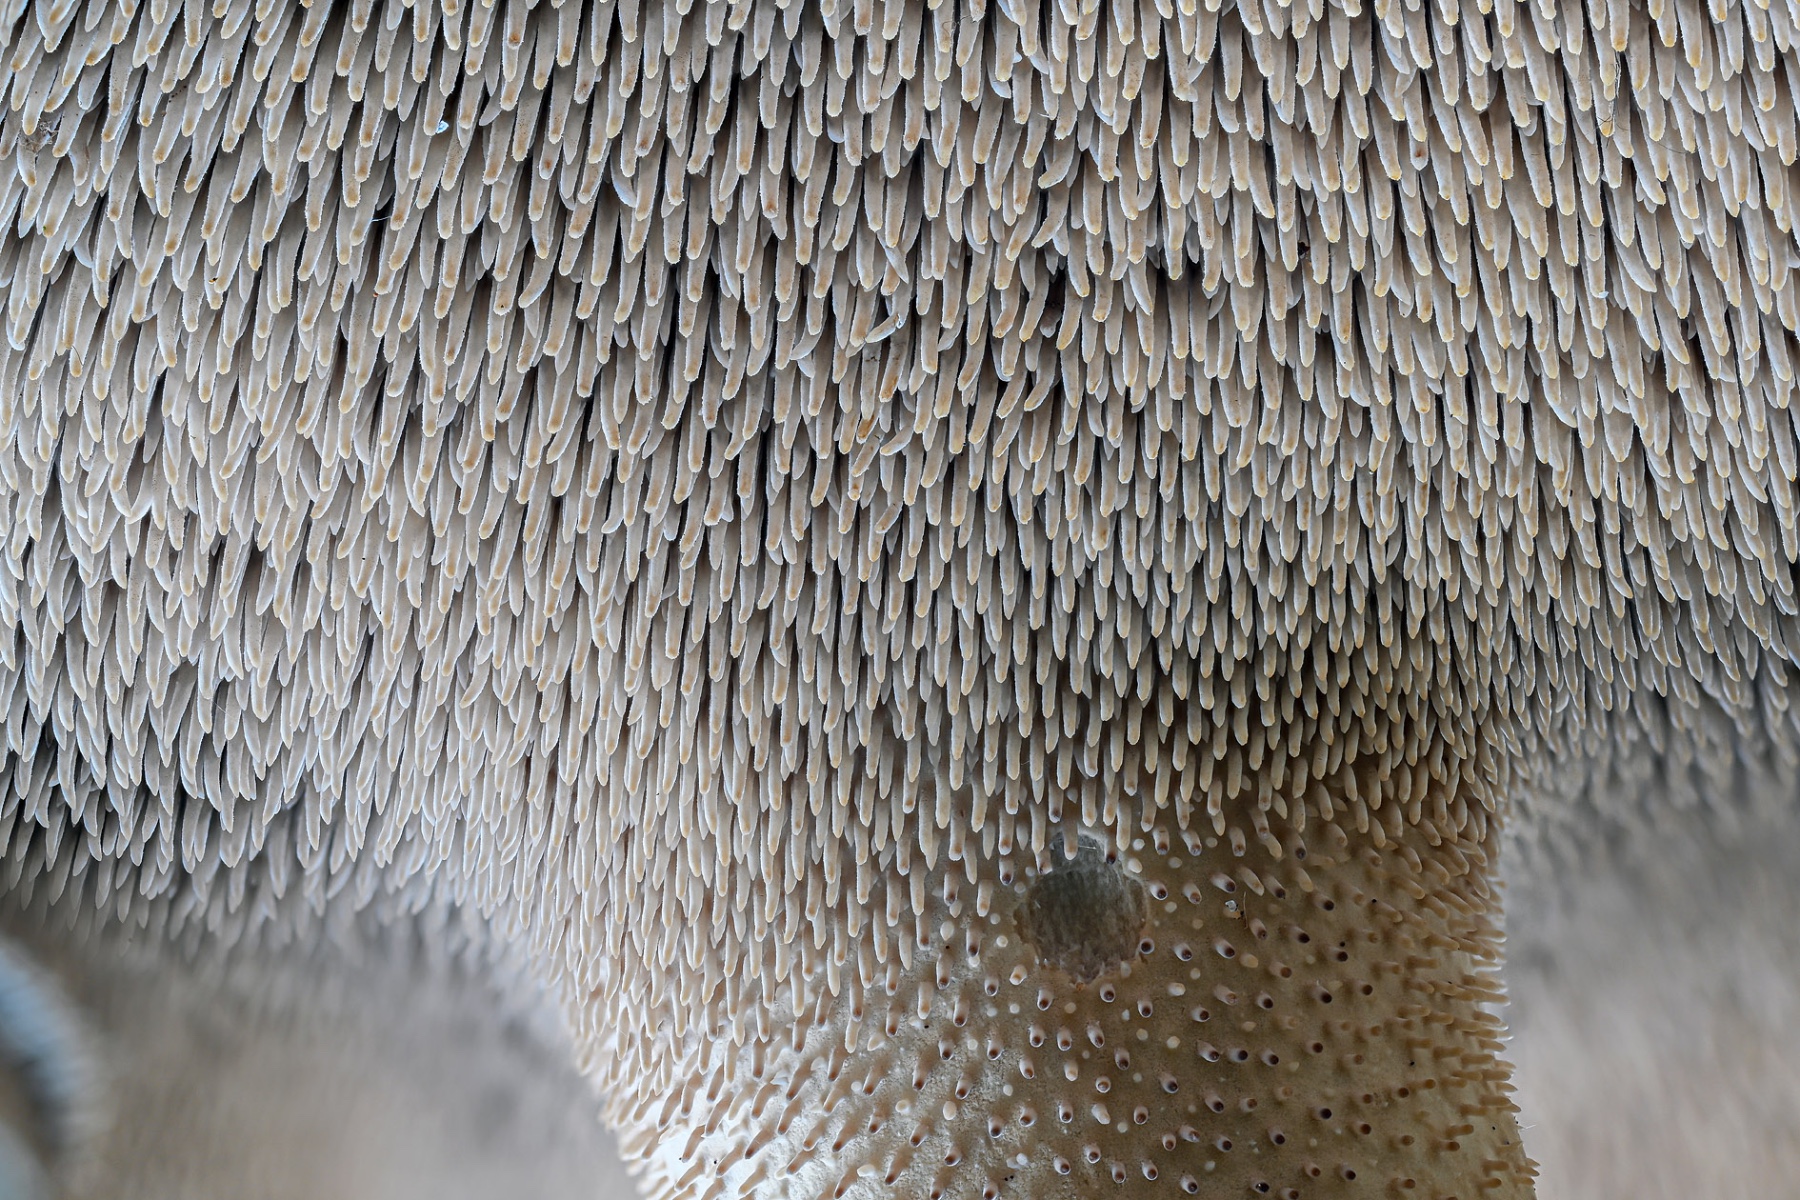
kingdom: Fungi
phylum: Basidiomycota
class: Agaricomycetes
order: Thelephorales
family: Bankeraceae
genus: Sarcodon
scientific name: Sarcodon squamosus
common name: småskællet kødpigsvamp
